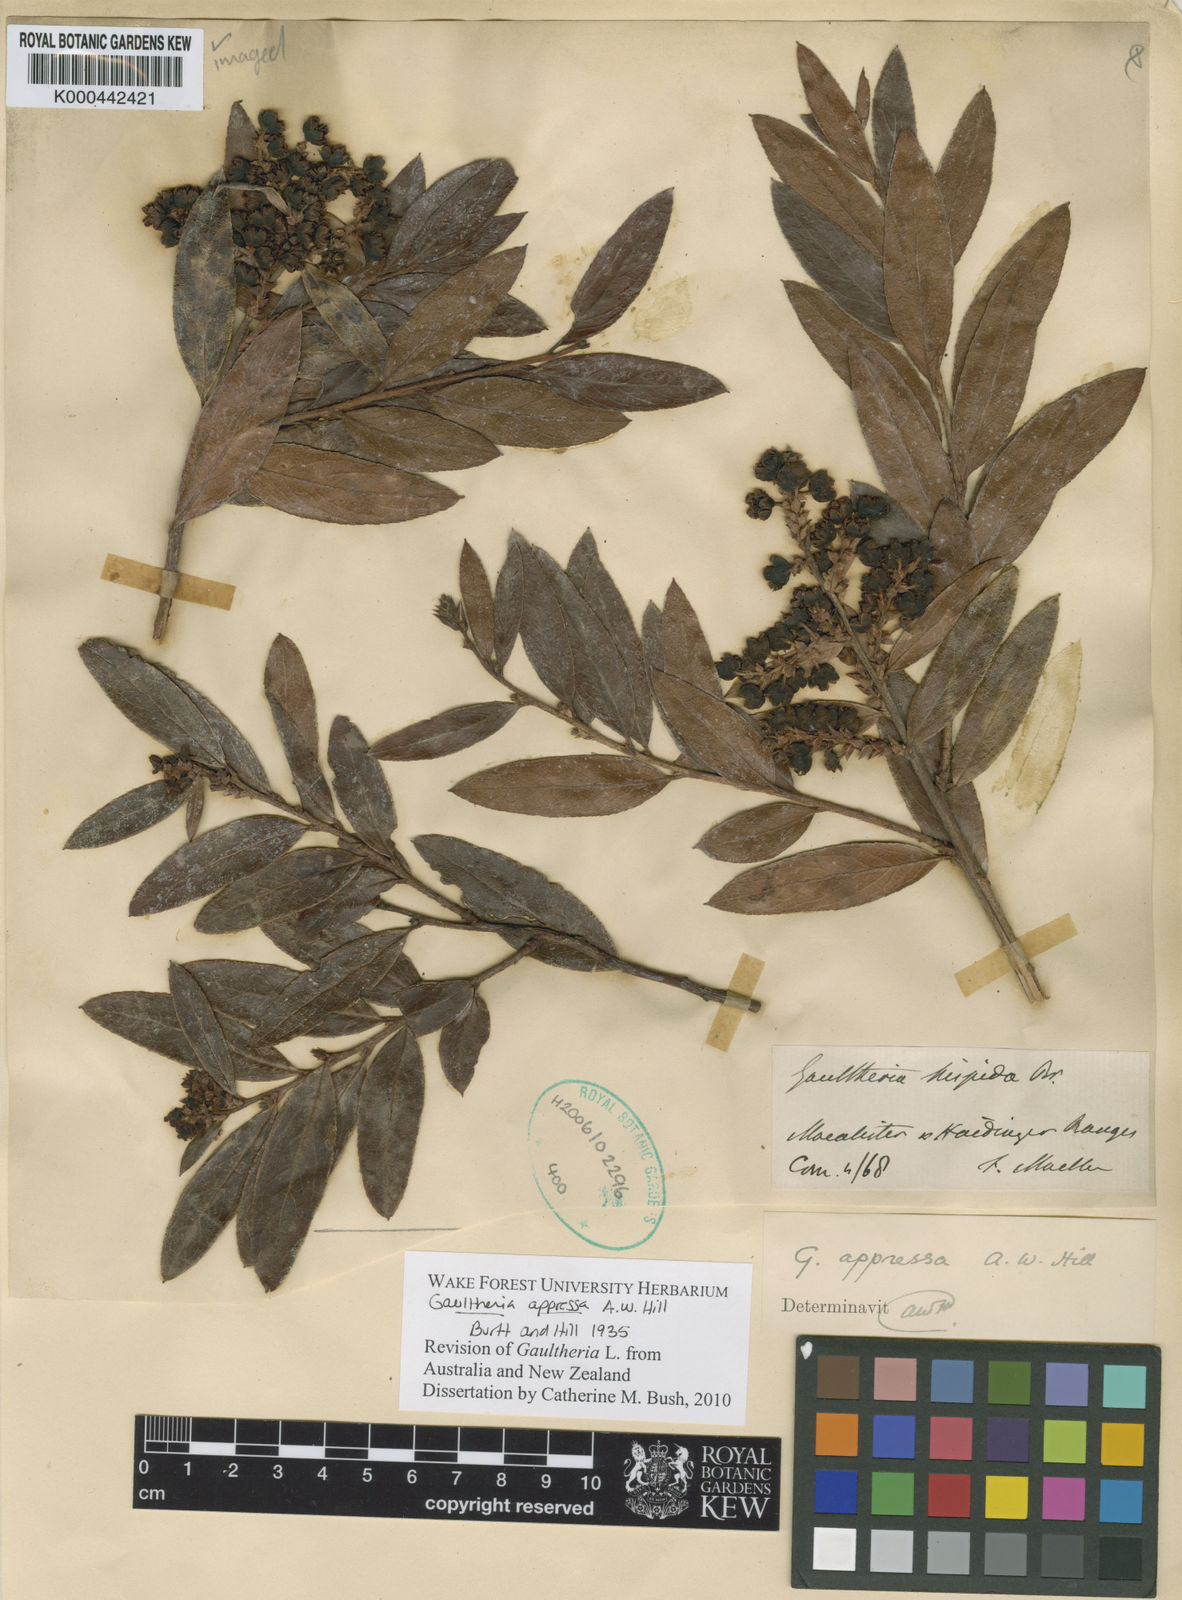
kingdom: Plantae
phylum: Tracheophyta
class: Magnoliopsida
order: Ericales
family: Ericaceae
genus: Gaultheria
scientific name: Gaultheria appressa
